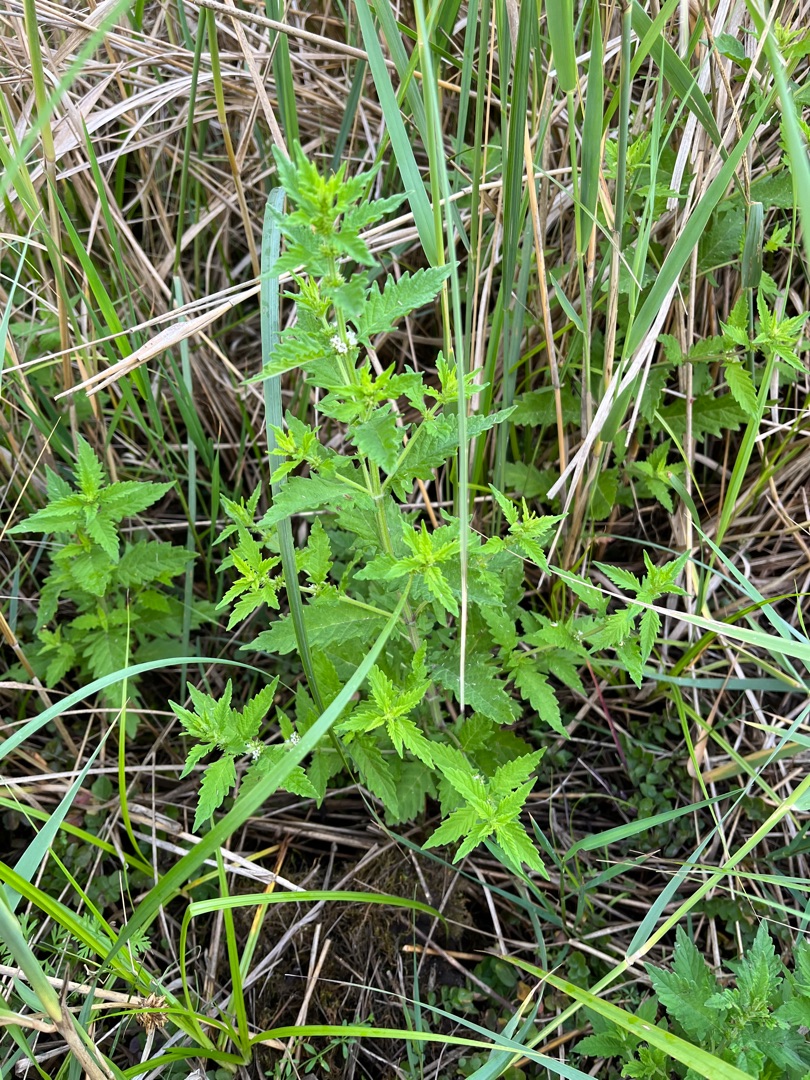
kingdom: Plantae
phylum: Tracheophyta
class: Magnoliopsida
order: Lamiales
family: Lamiaceae
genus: Lycopus
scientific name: Lycopus europaeus
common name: Sværtevæld
